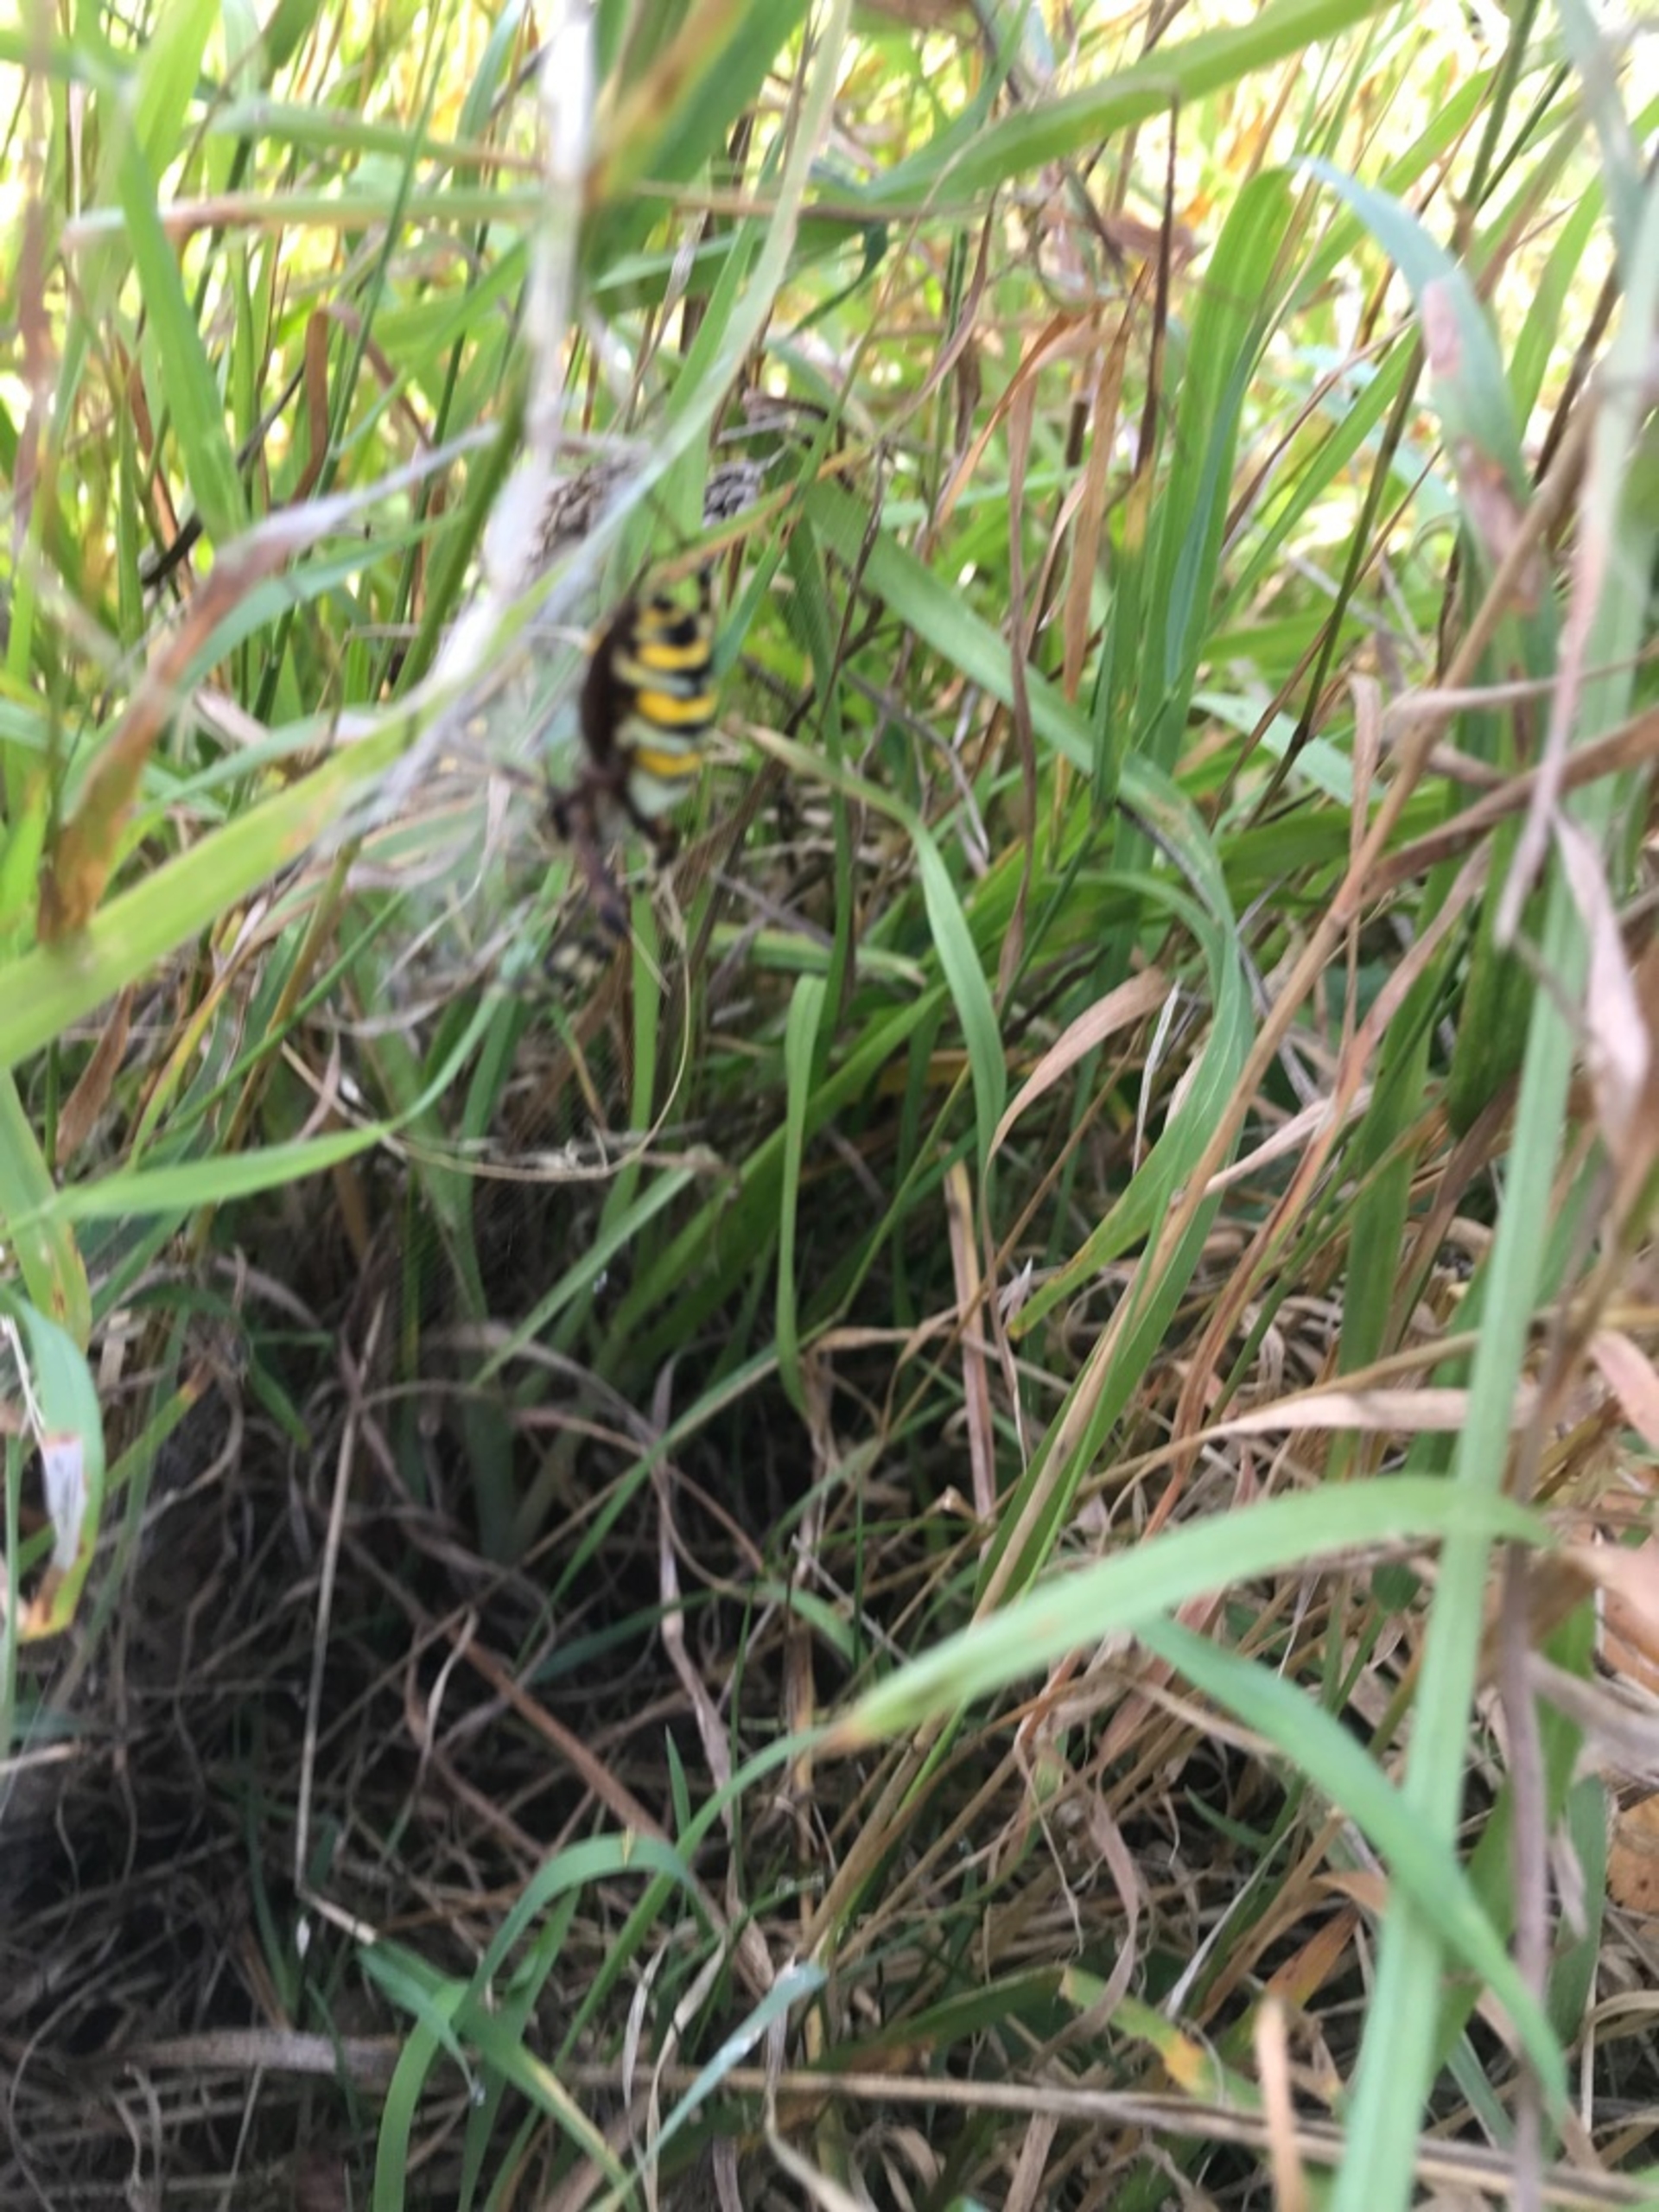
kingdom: Animalia
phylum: Arthropoda
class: Arachnida
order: Araneae
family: Araneidae
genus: Argiope
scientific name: Argiope bruennichi
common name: Hvepseedderkop
